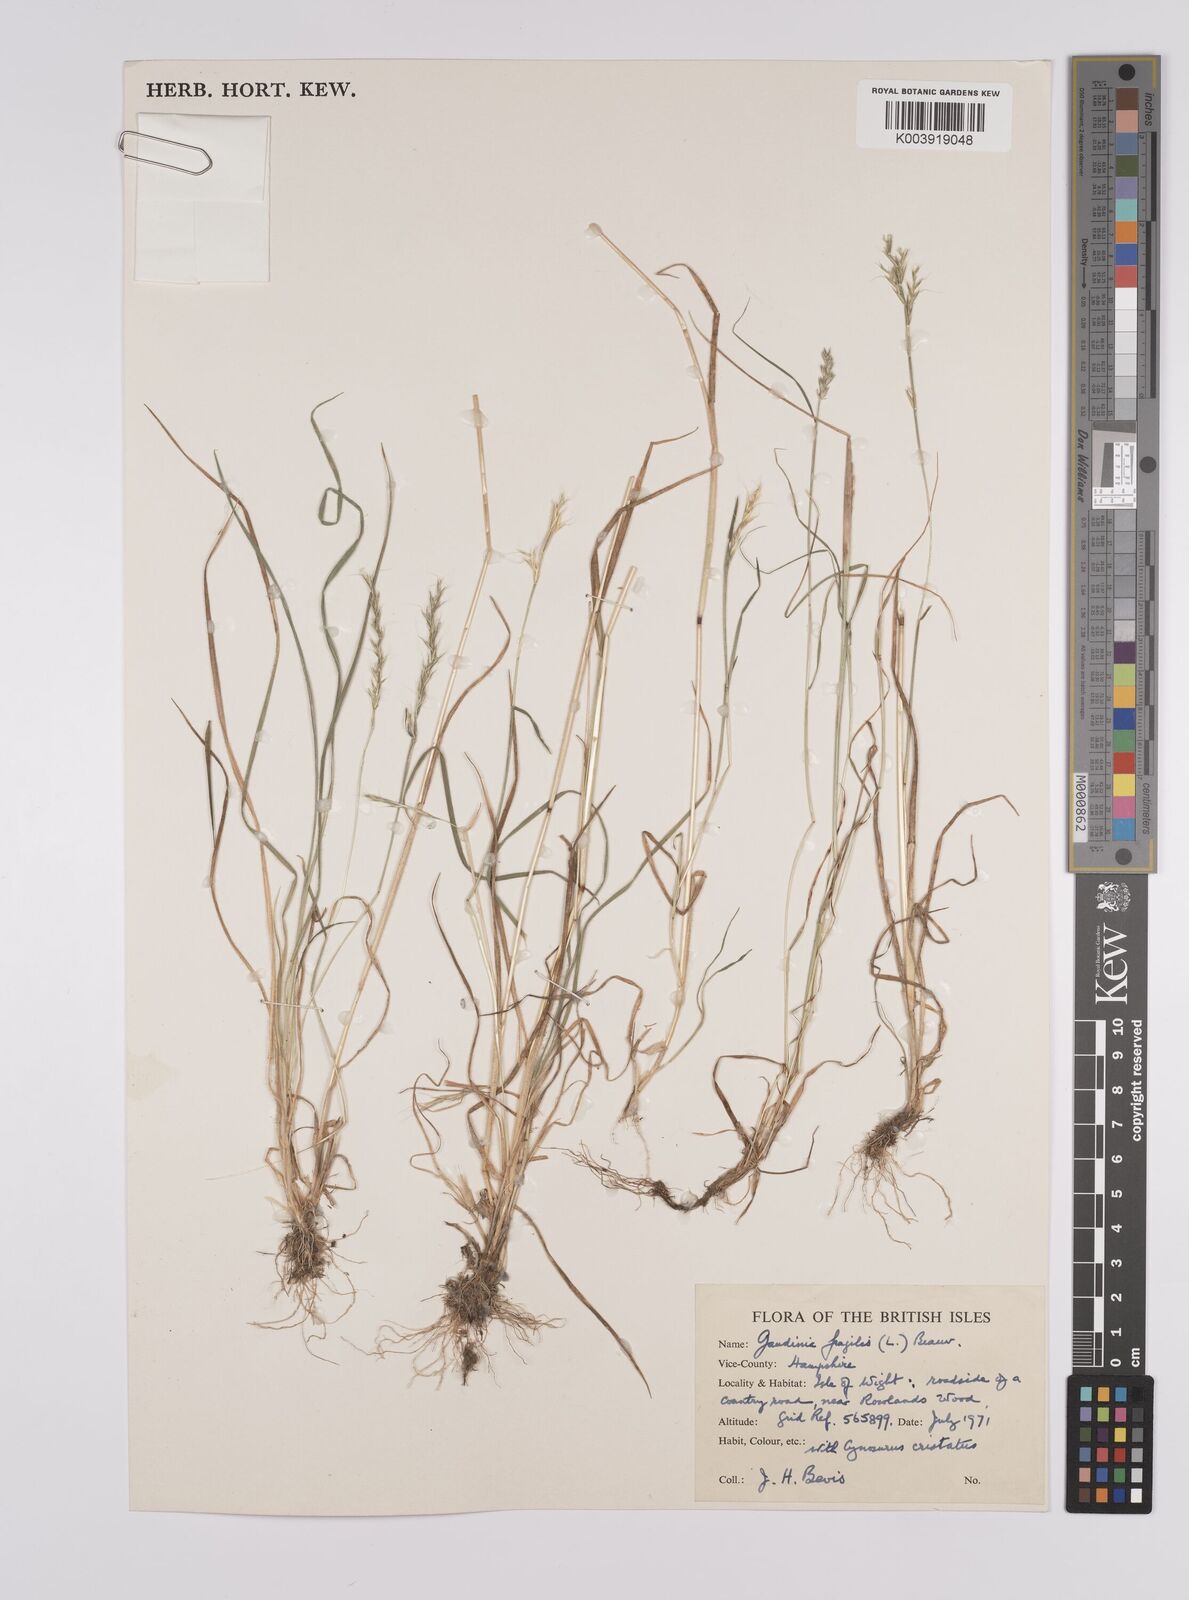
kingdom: Plantae
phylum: Tracheophyta
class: Liliopsida
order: Poales
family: Poaceae
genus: Gaudinia
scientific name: Gaudinia fragilis
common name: French oat-grass
